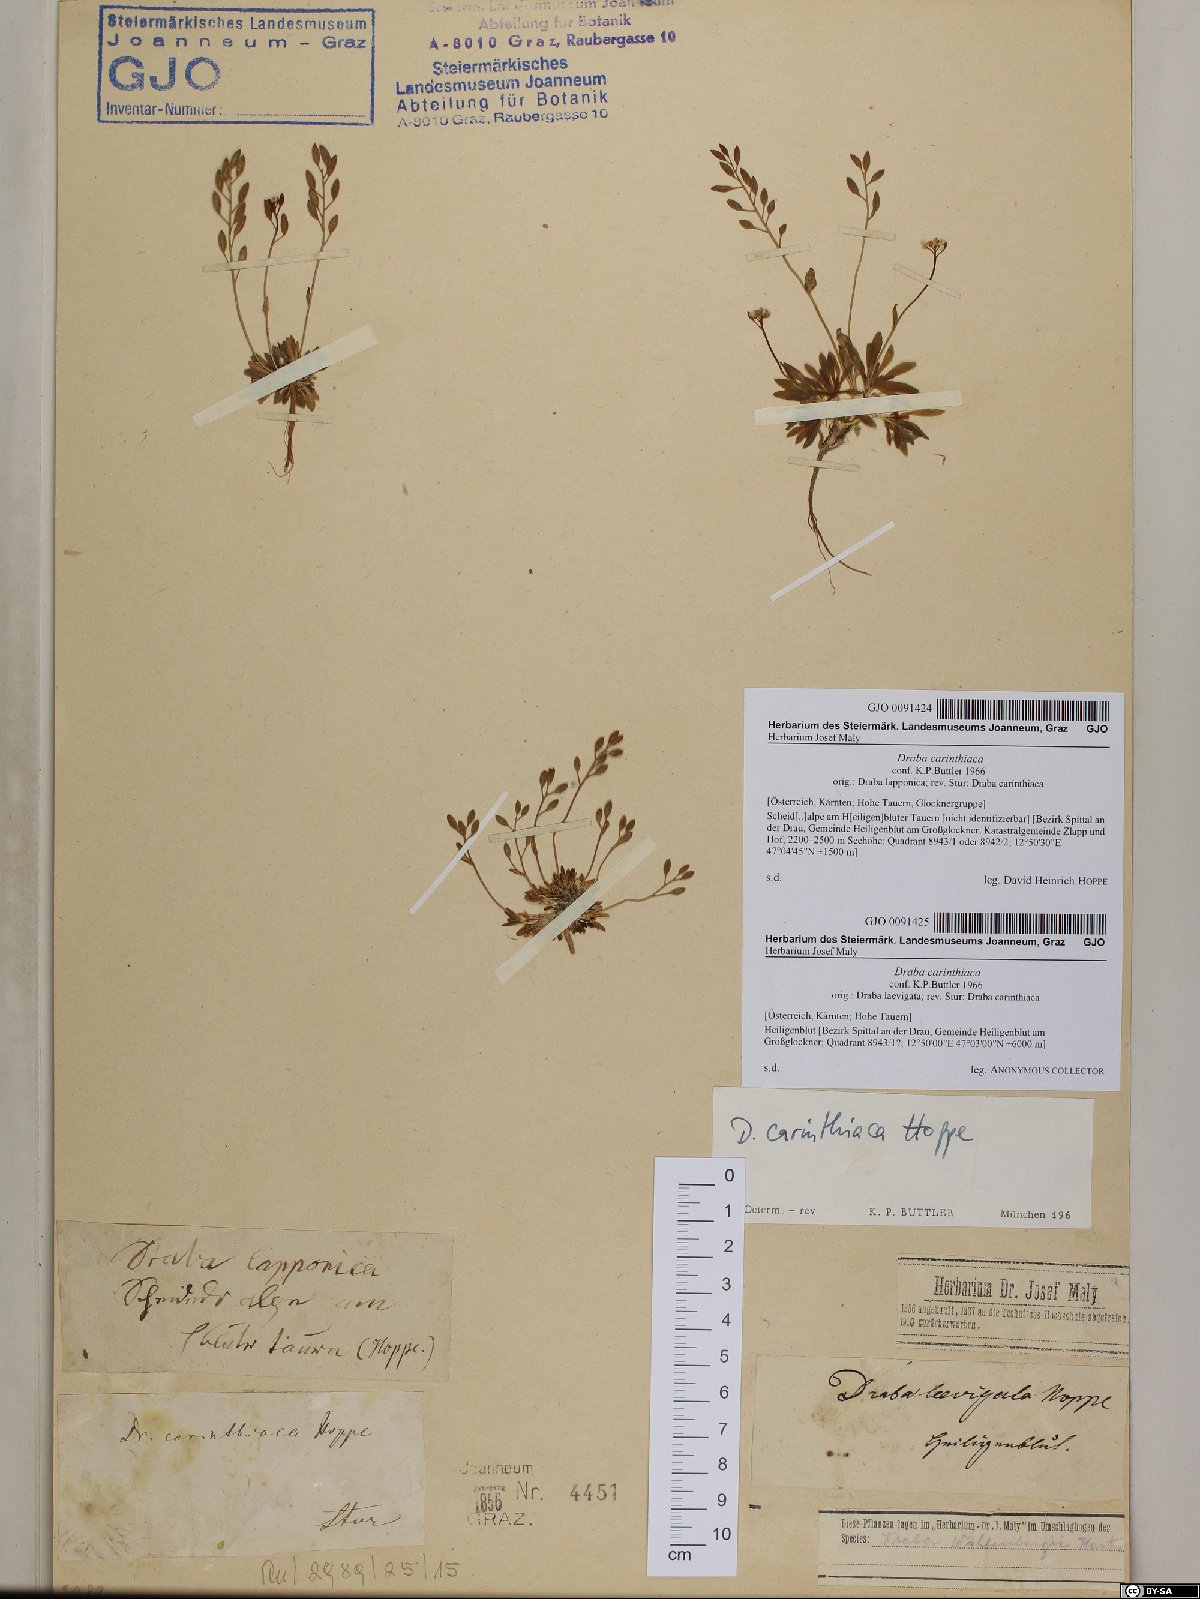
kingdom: Plantae
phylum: Tracheophyta
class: Magnoliopsida
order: Brassicales
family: Brassicaceae
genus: Draba
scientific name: Draba siliquosa
